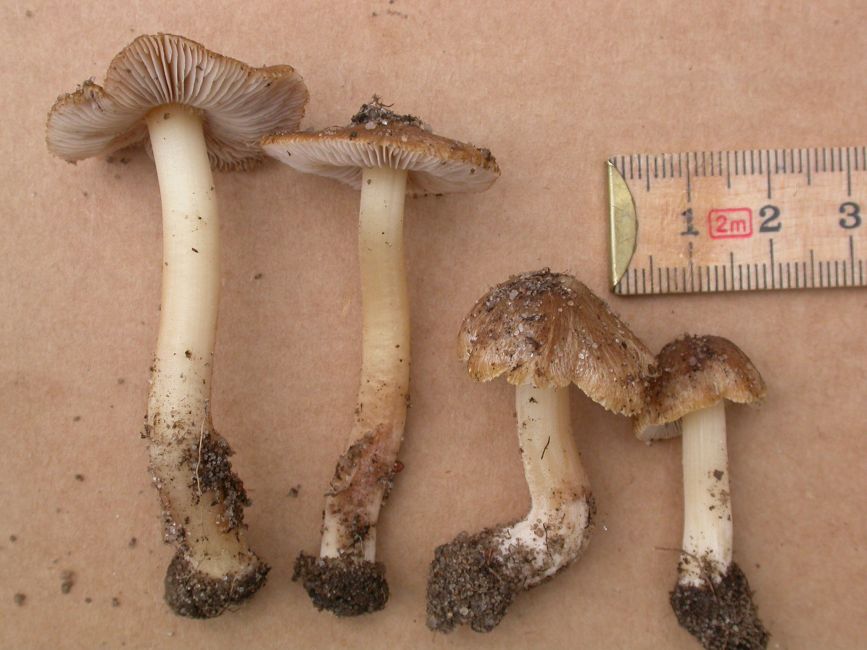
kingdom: Fungi
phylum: Basidiomycota
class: Agaricomycetes
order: Agaricales
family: Inocybaceae
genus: Inocybe
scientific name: Inocybe caprimulgi
